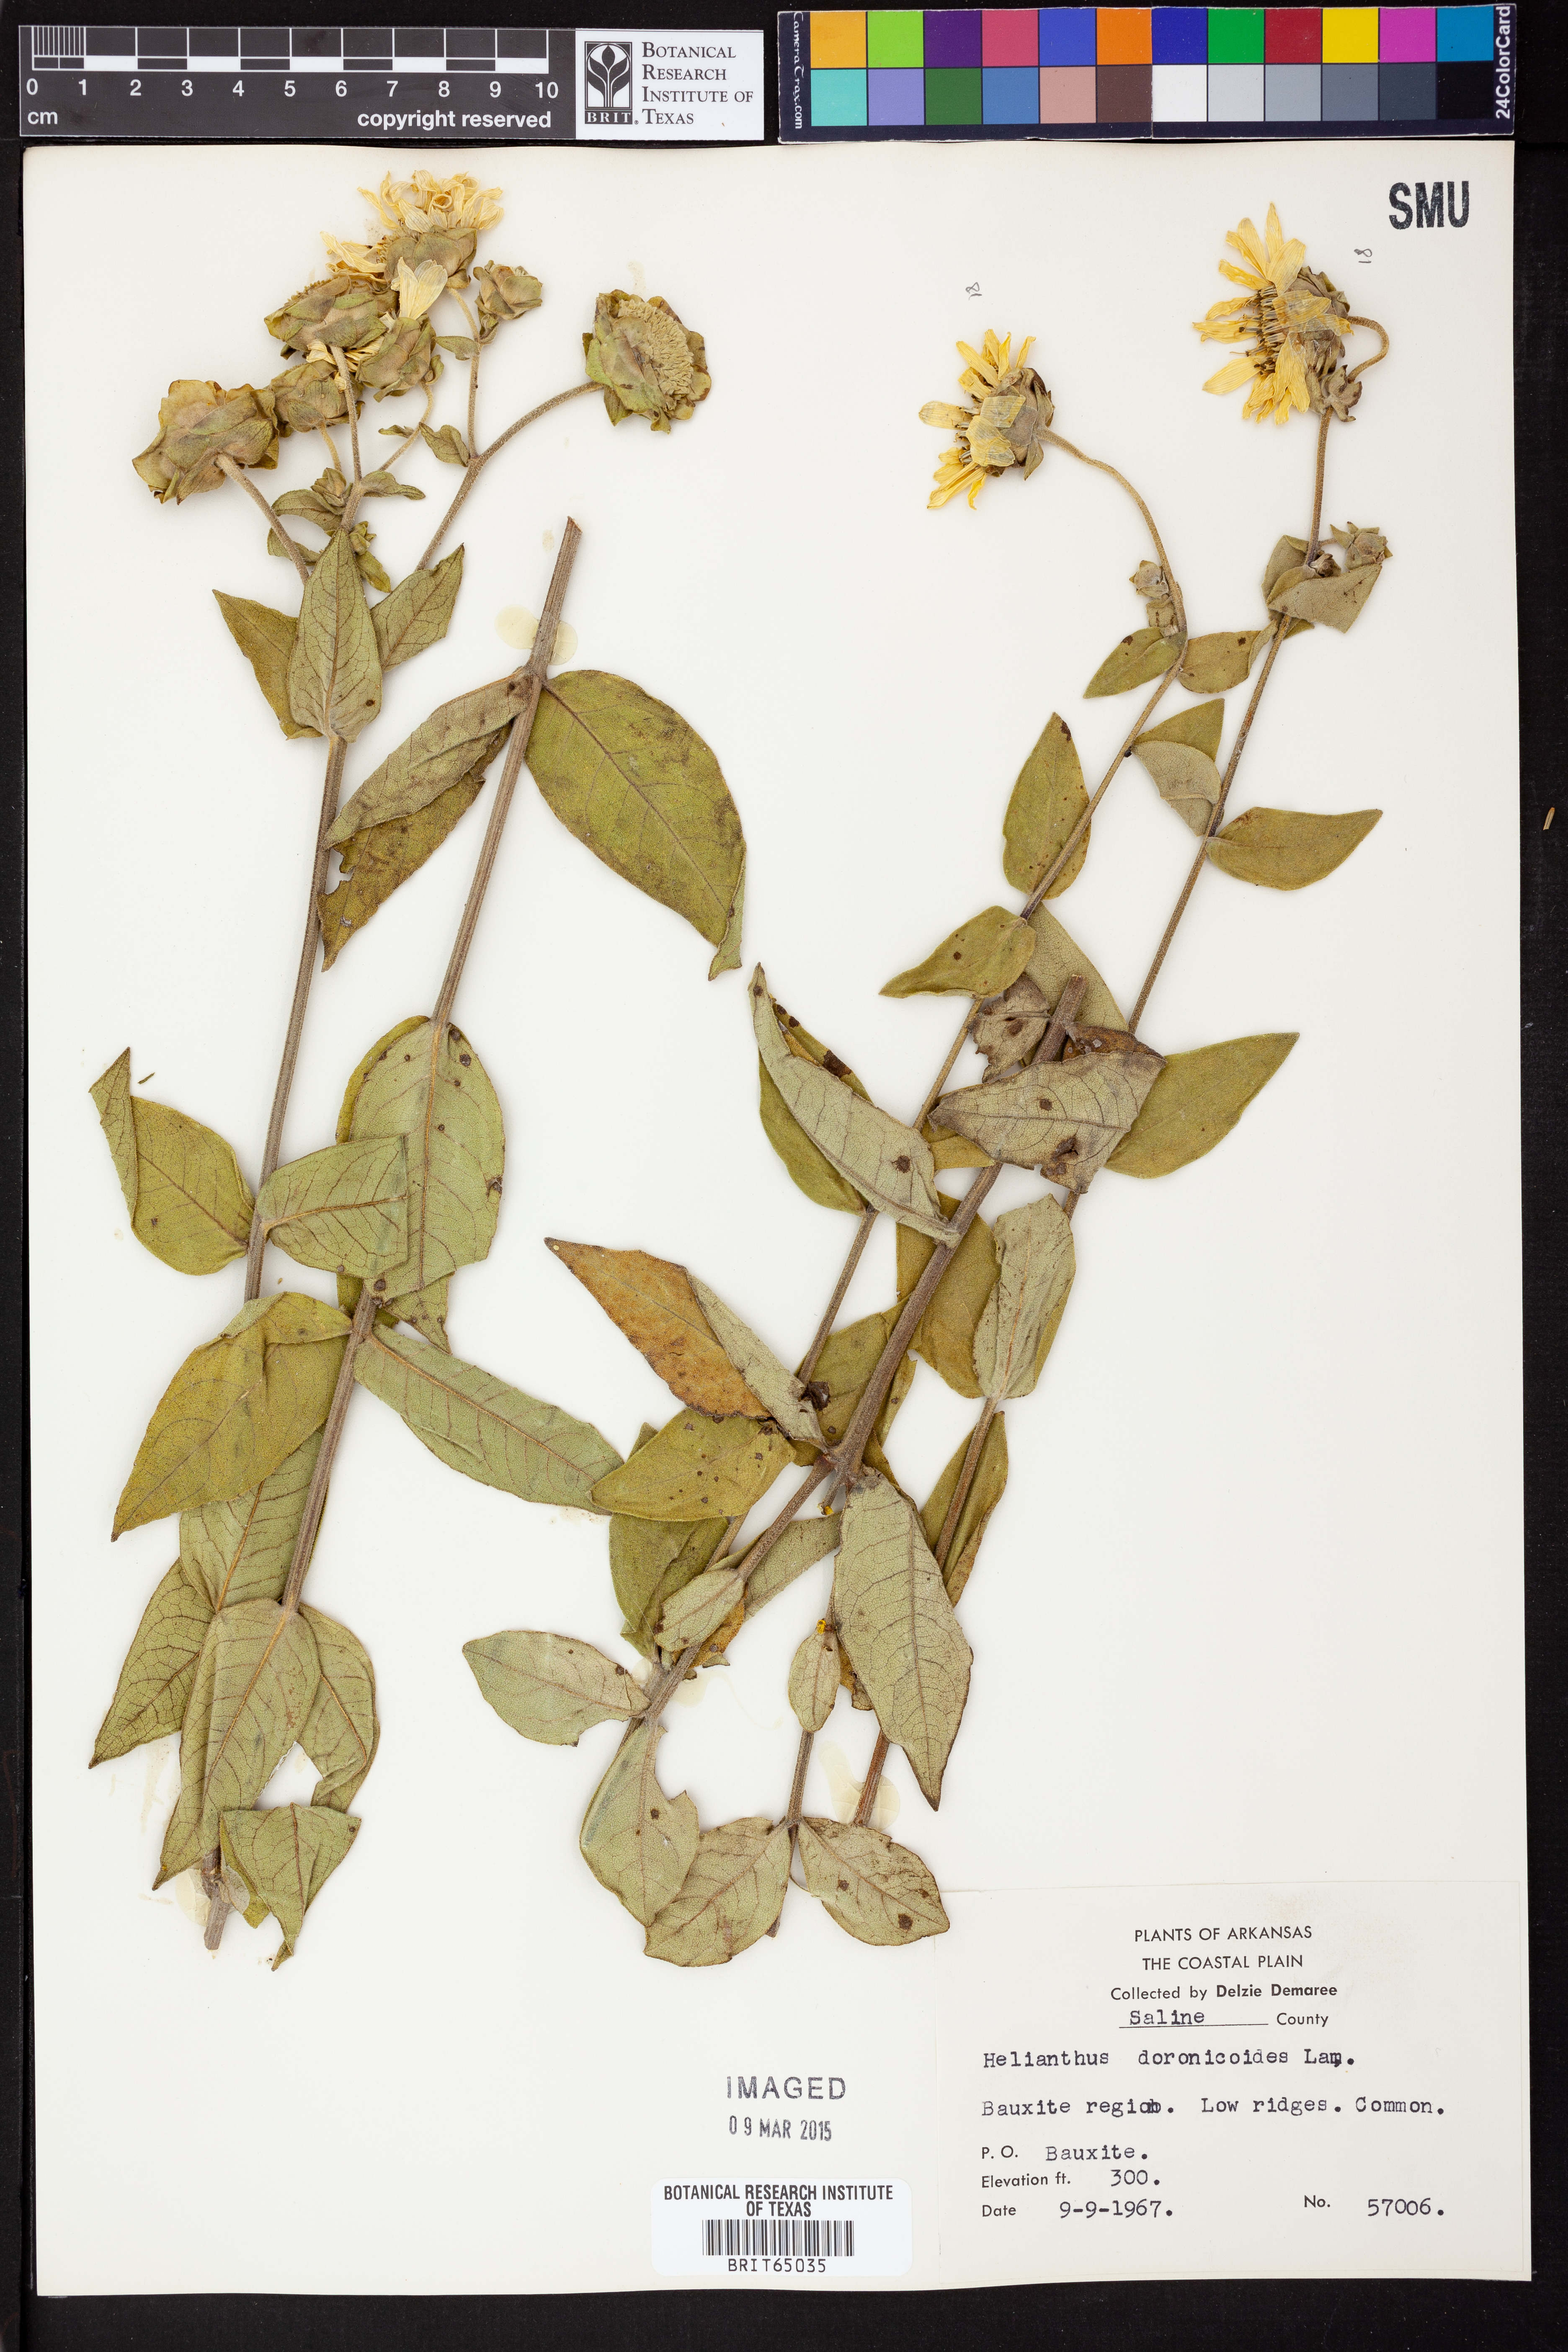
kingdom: Plantae
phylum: Tracheophyta
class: Magnoliopsida
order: Asterales
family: Asteraceae
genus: Helianthus
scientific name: Helianthus doronicoides
